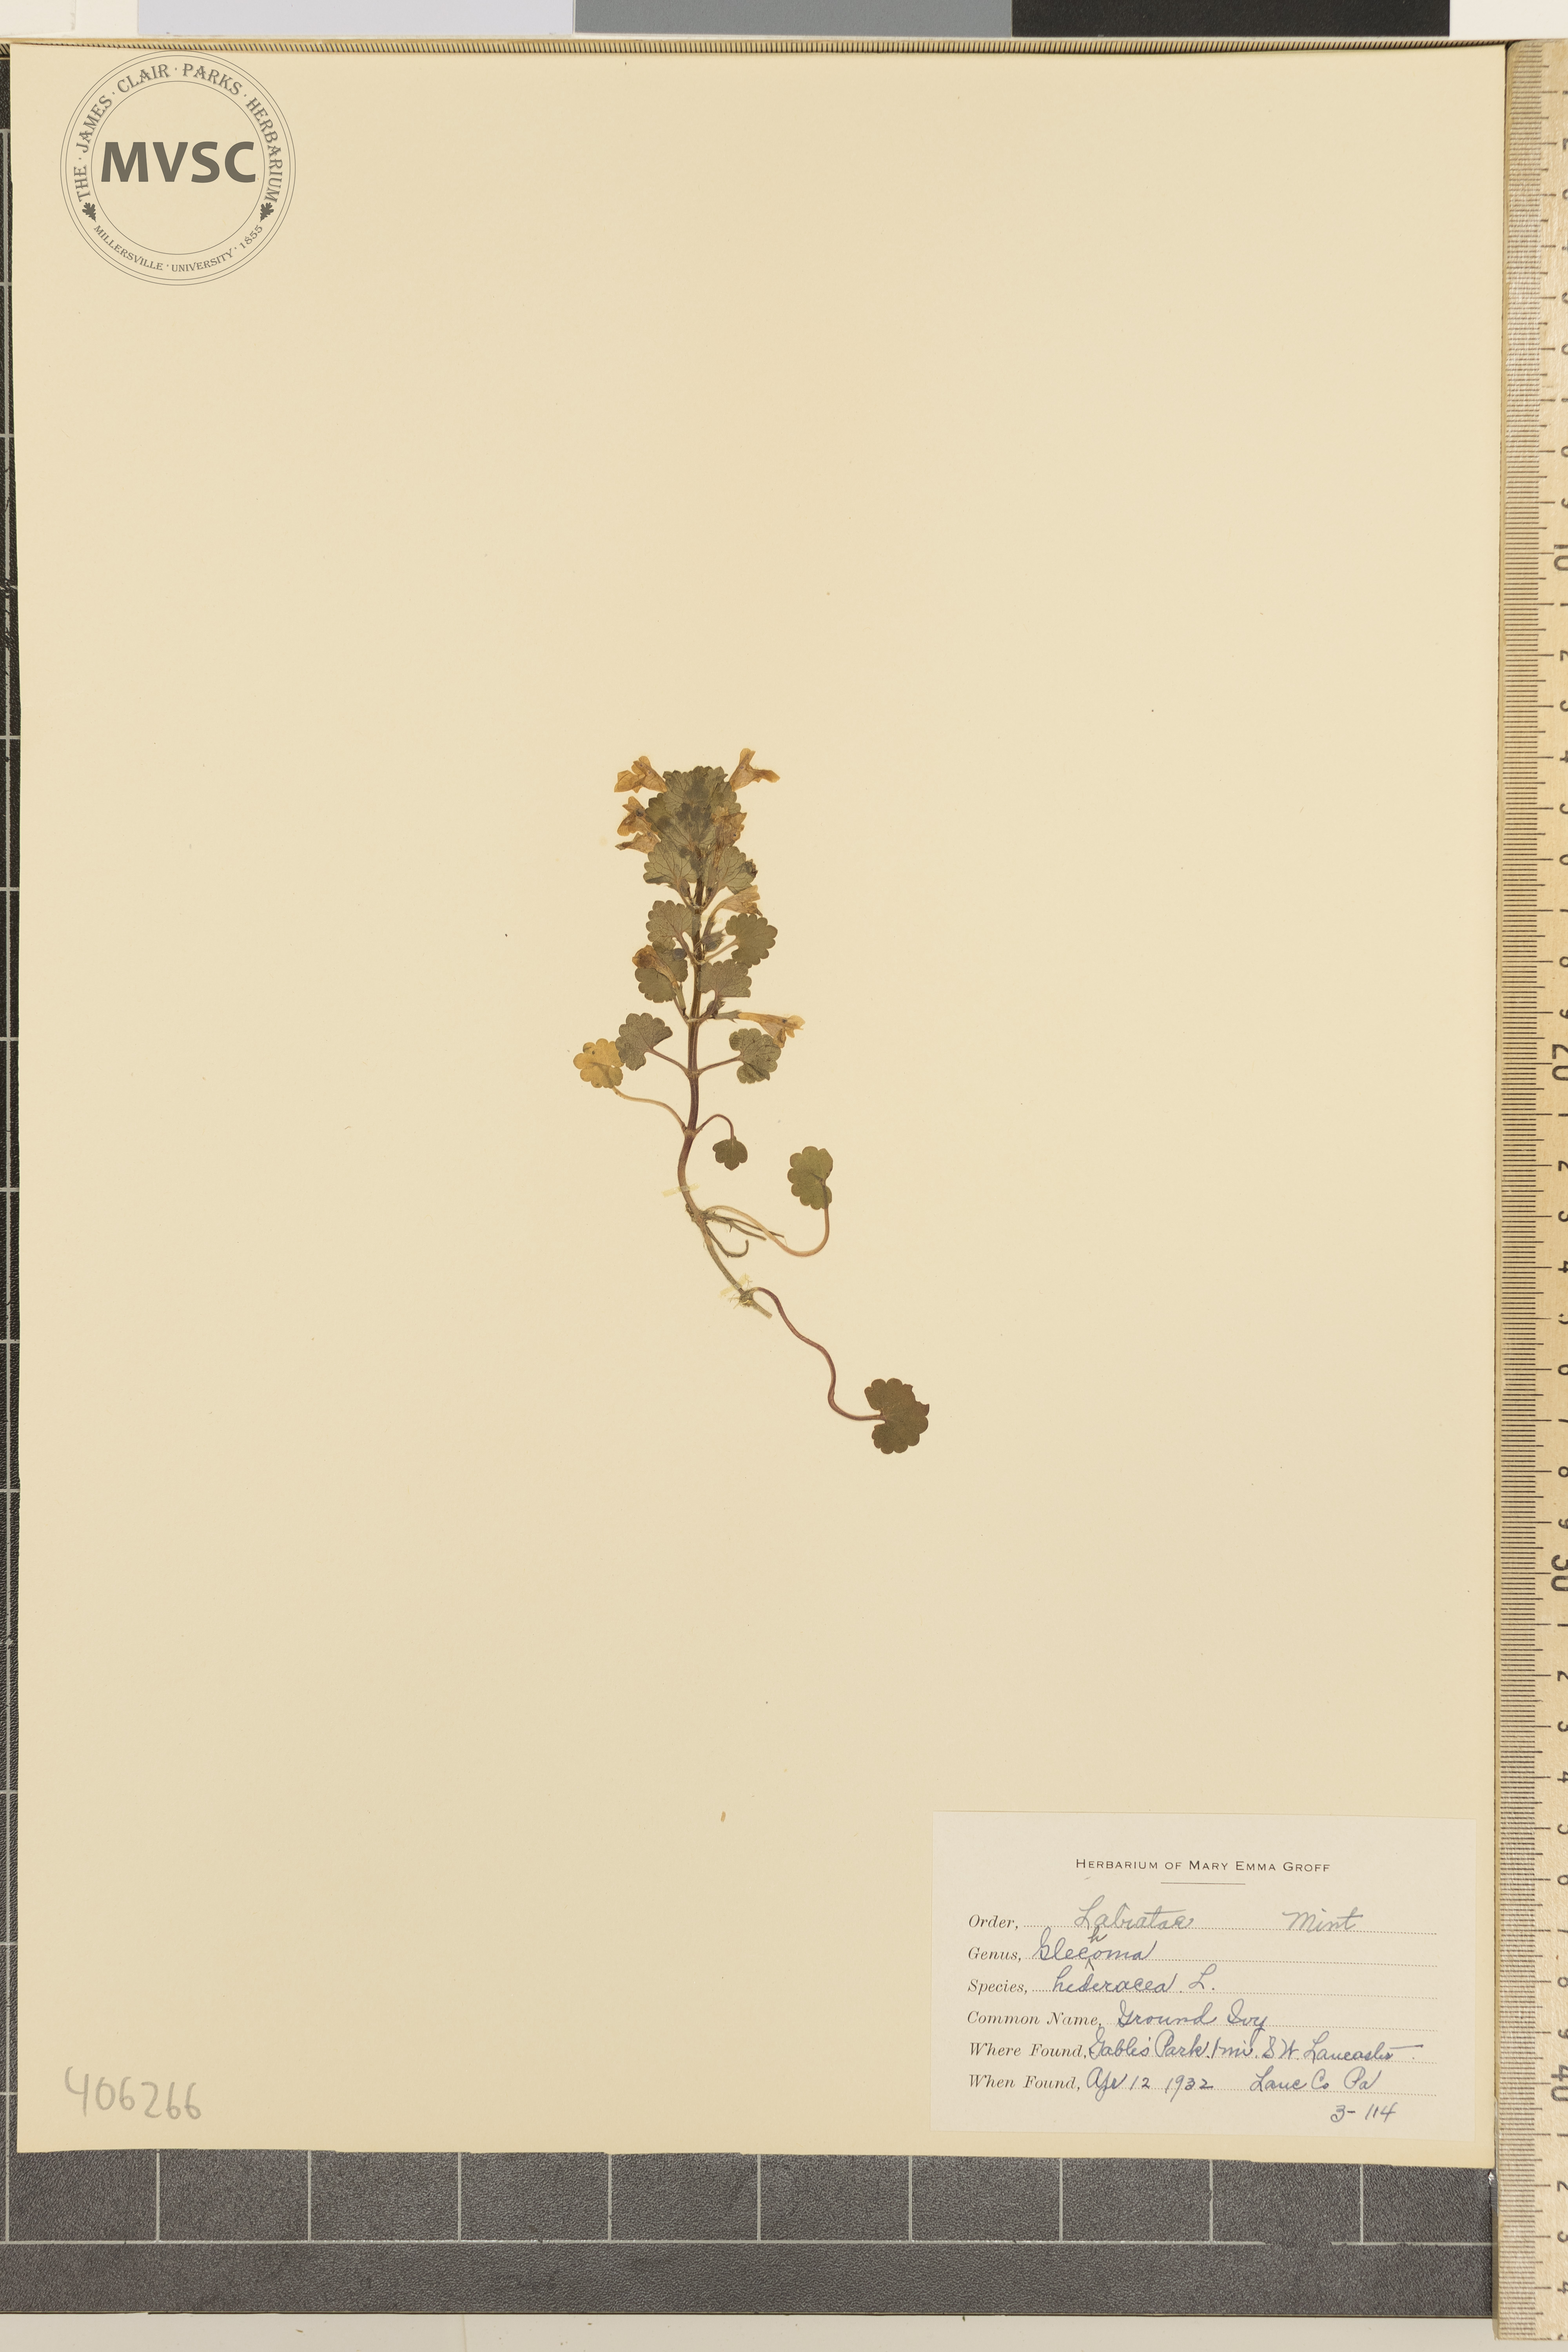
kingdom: Plantae
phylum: Tracheophyta
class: Magnoliopsida
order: Lamiales
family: Lamiaceae
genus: Glechoma
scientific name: Glechoma hederacea
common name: ground ivy
